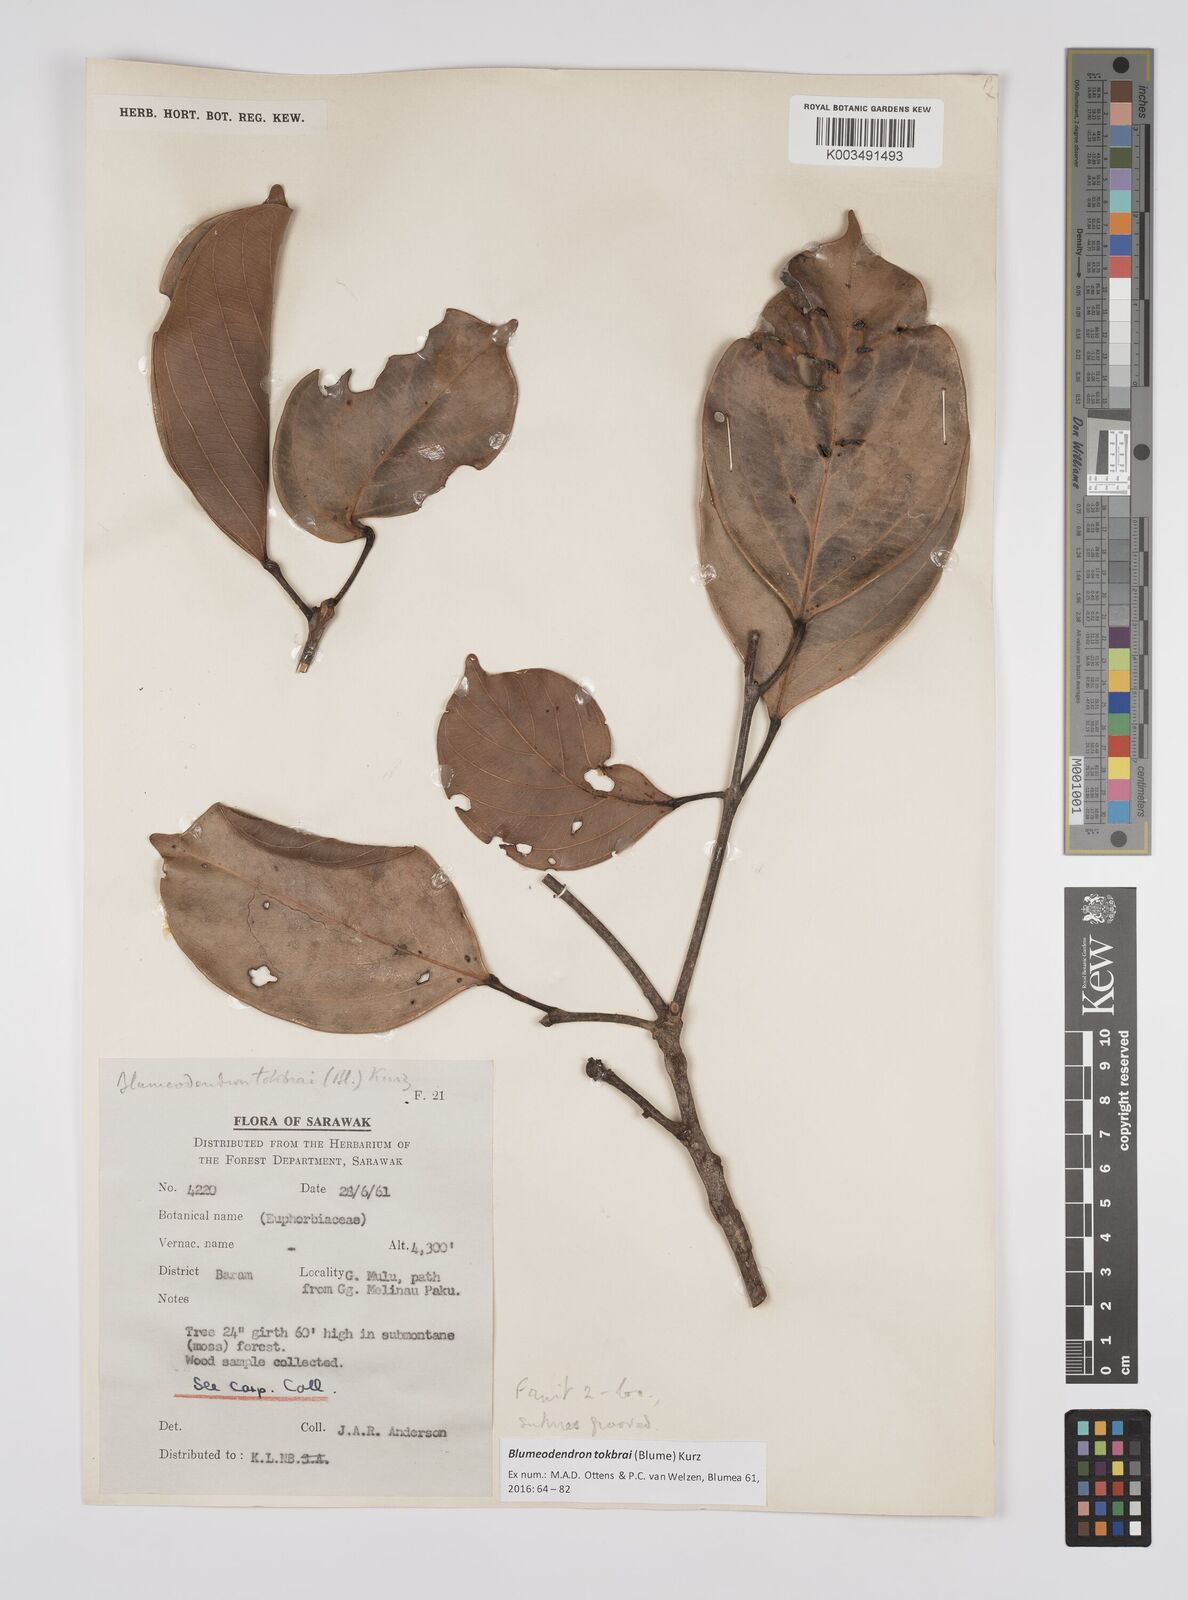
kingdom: Plantae
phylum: Tracheophyta
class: Magnoliopsida
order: Malpighiales
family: Euphorbiaceae
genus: Blumeodendron
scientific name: Blumeodendron tokbrai
